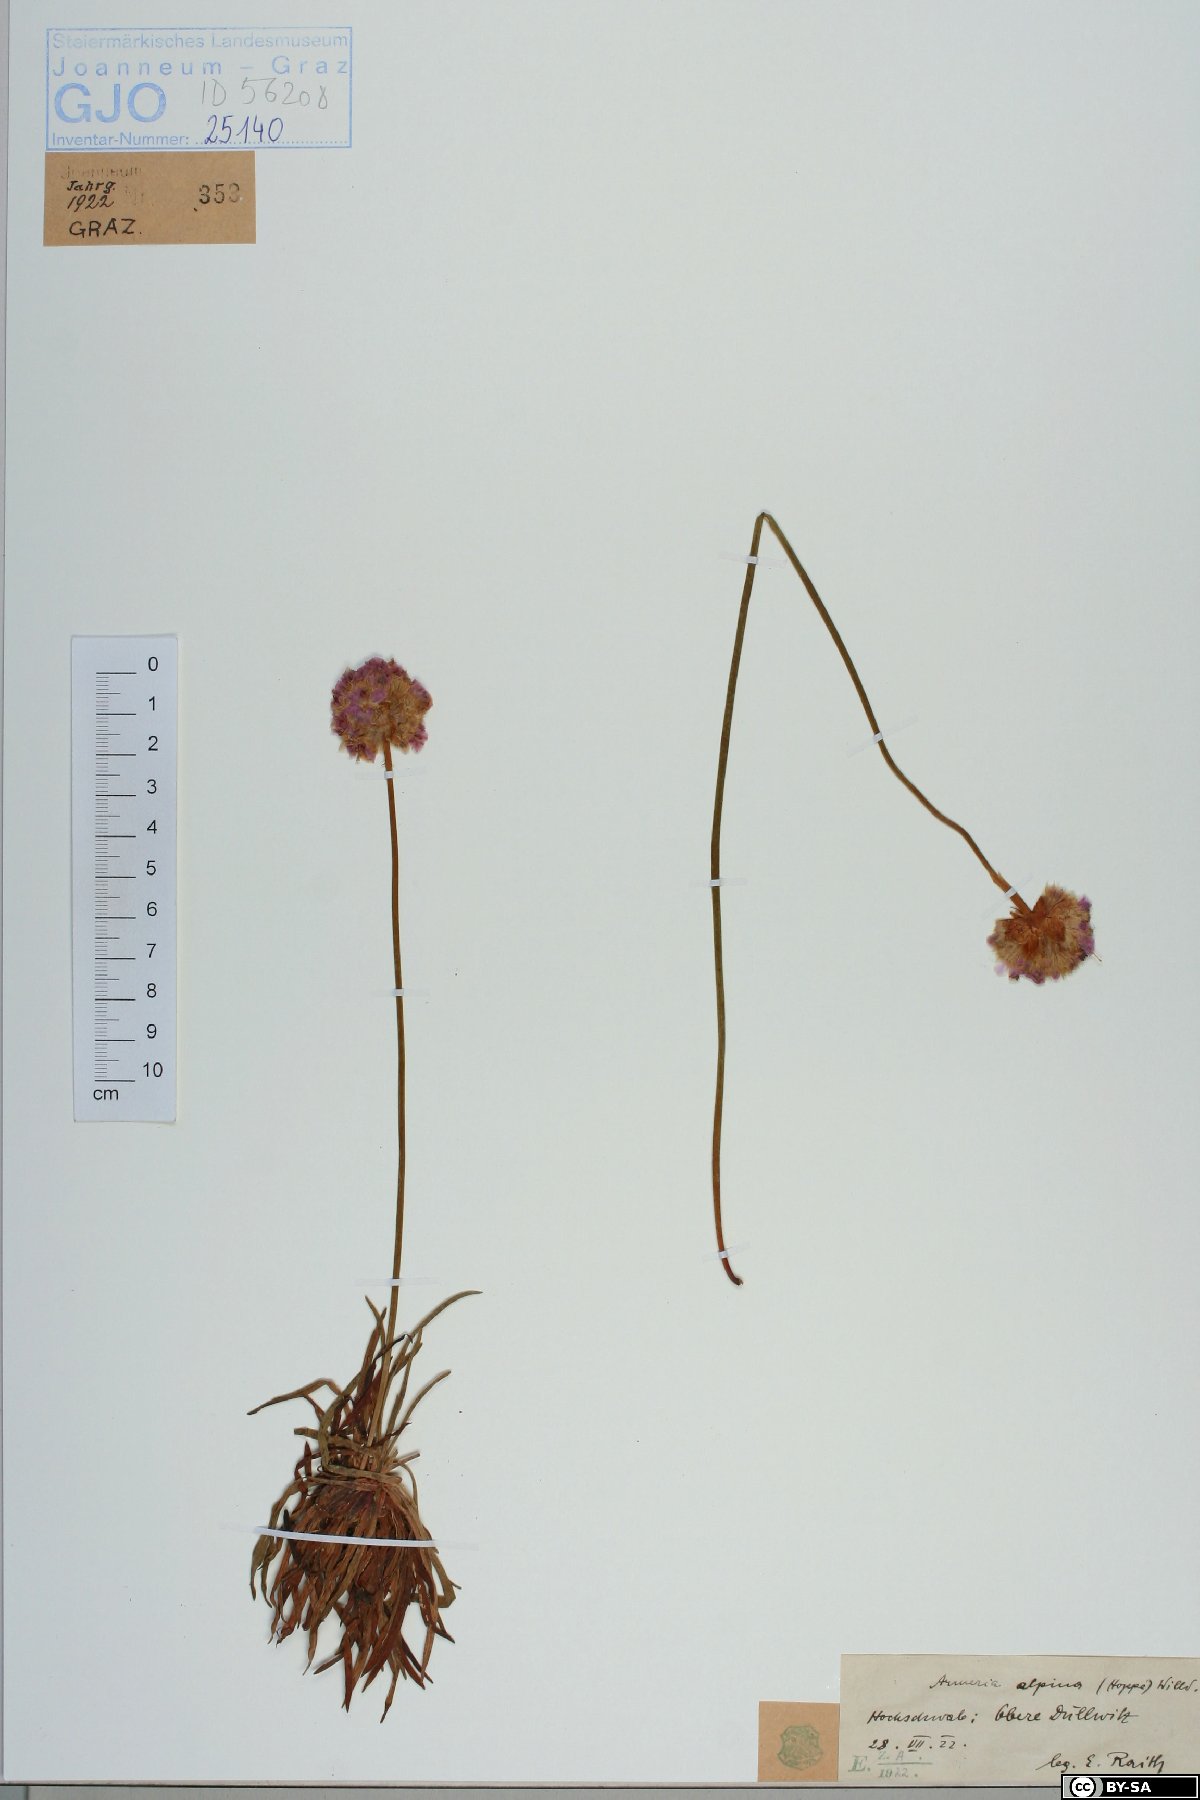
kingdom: Plantae
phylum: Tracheophyta
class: Magnoliopsida
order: Caryophyllales
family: Plumbaginaceae
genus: Armeria
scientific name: Armeria alpina
